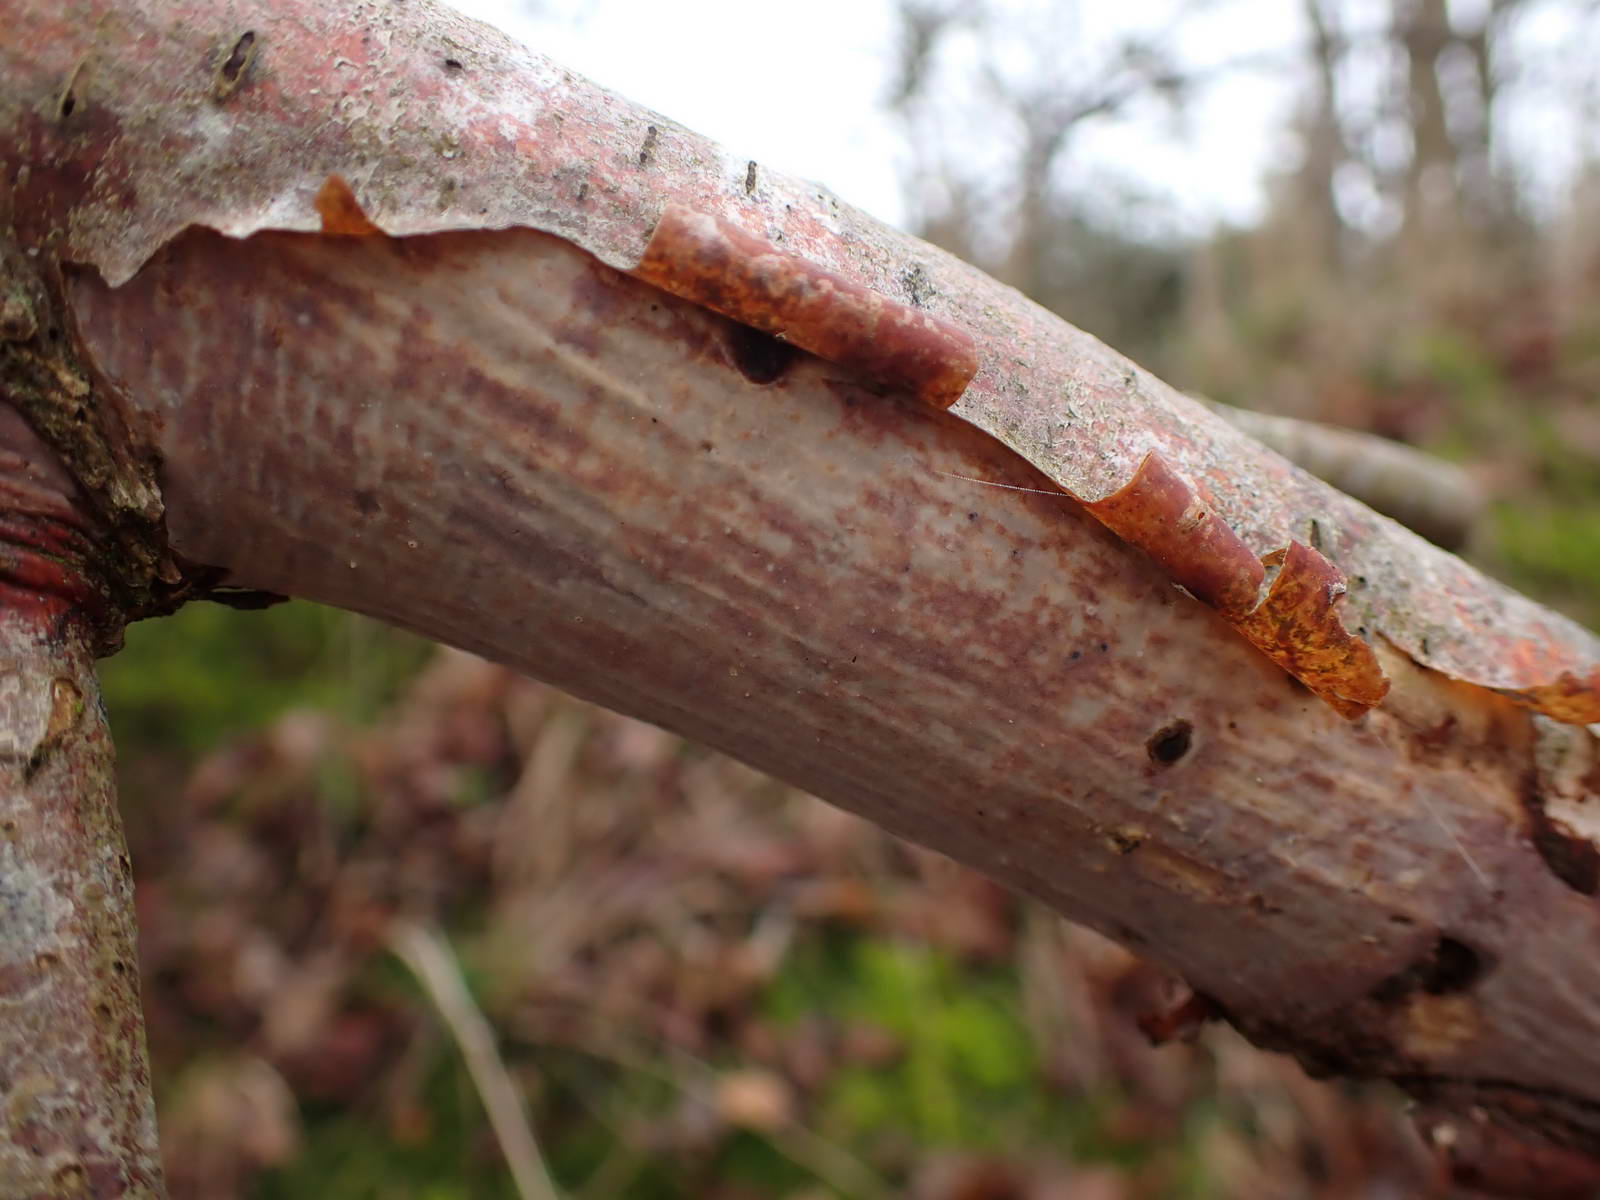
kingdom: Fungi
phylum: Basidiomycota
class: Agaricomycetes
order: Corticiales
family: Vuilleminiaceae
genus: Vuilleminia
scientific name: Vuilleminia coryli
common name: hassel-barksprænger
